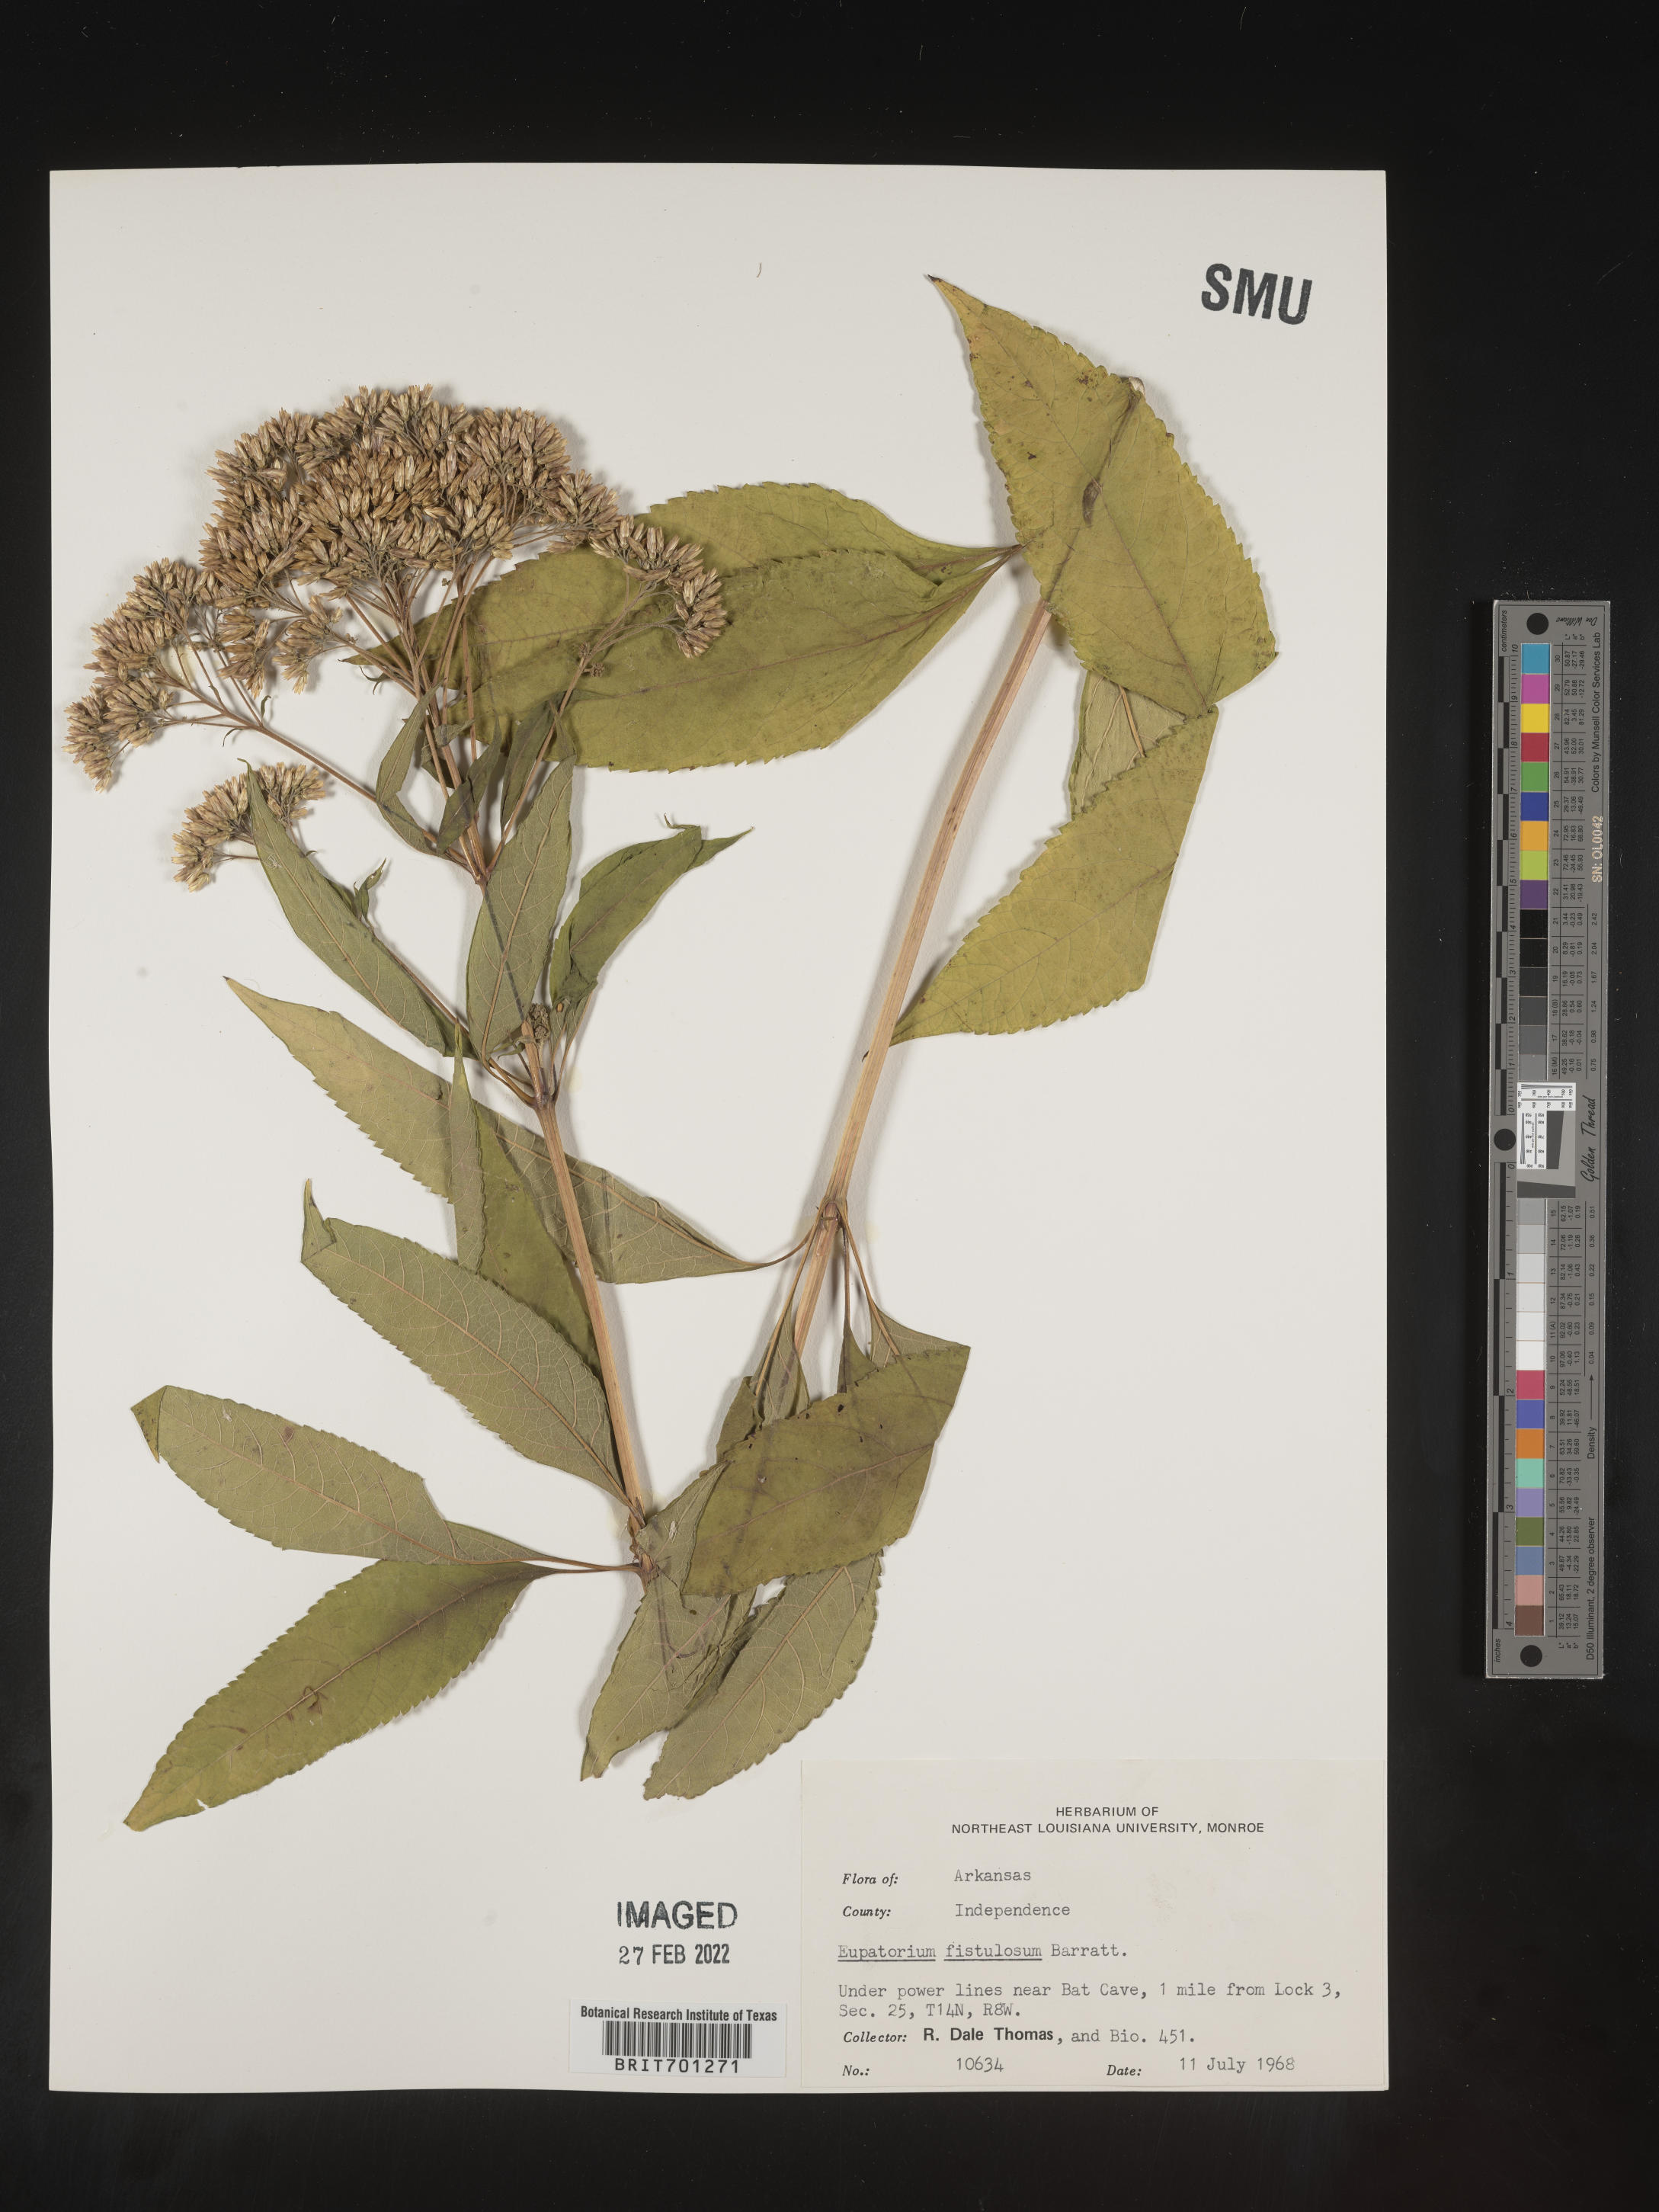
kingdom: Plantae
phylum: Tracheophyta
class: Magnoliopsida
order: Asterales
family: Asteraceae
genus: Eutrochium
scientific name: Eutrochium fistulosum
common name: Trumpetweed
